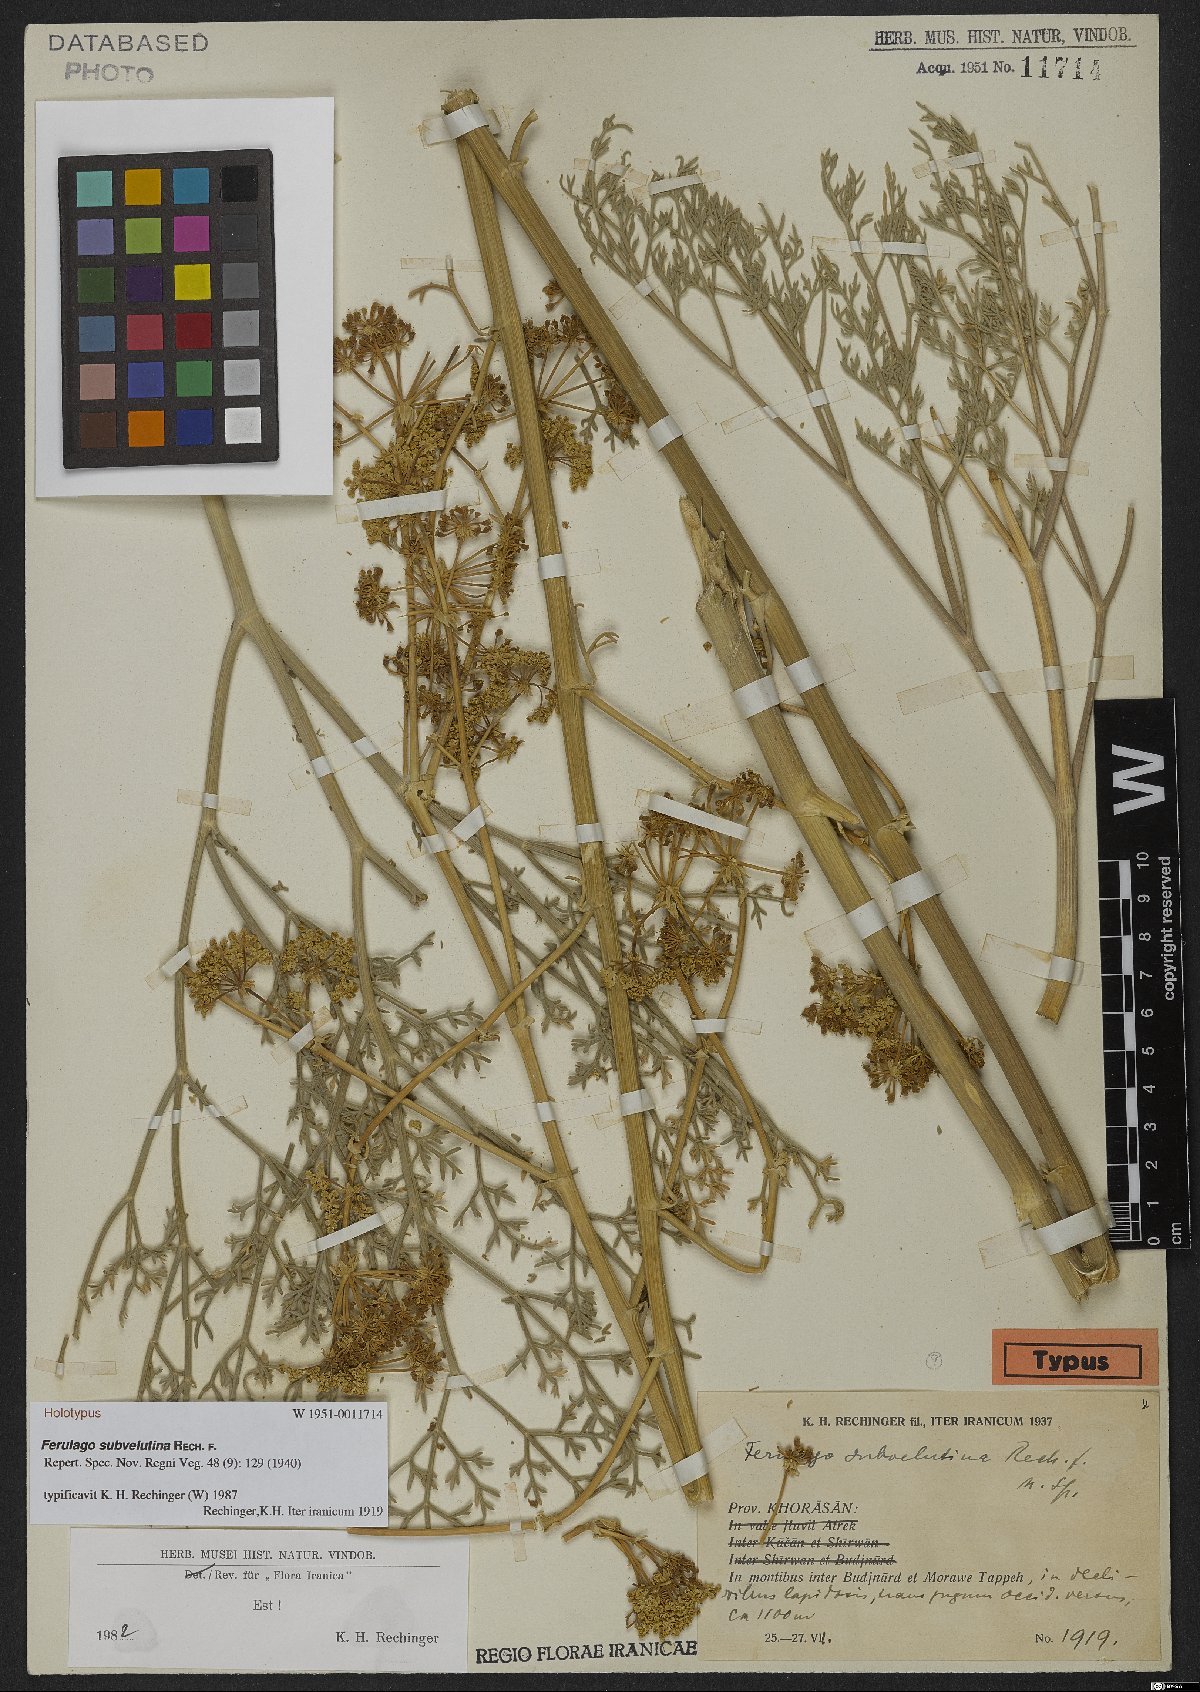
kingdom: Plantae
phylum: Tracheophyta
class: Magnoliopsida
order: Apiales
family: Apiaceae
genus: Ferulago
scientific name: Ferulago subvelutina
